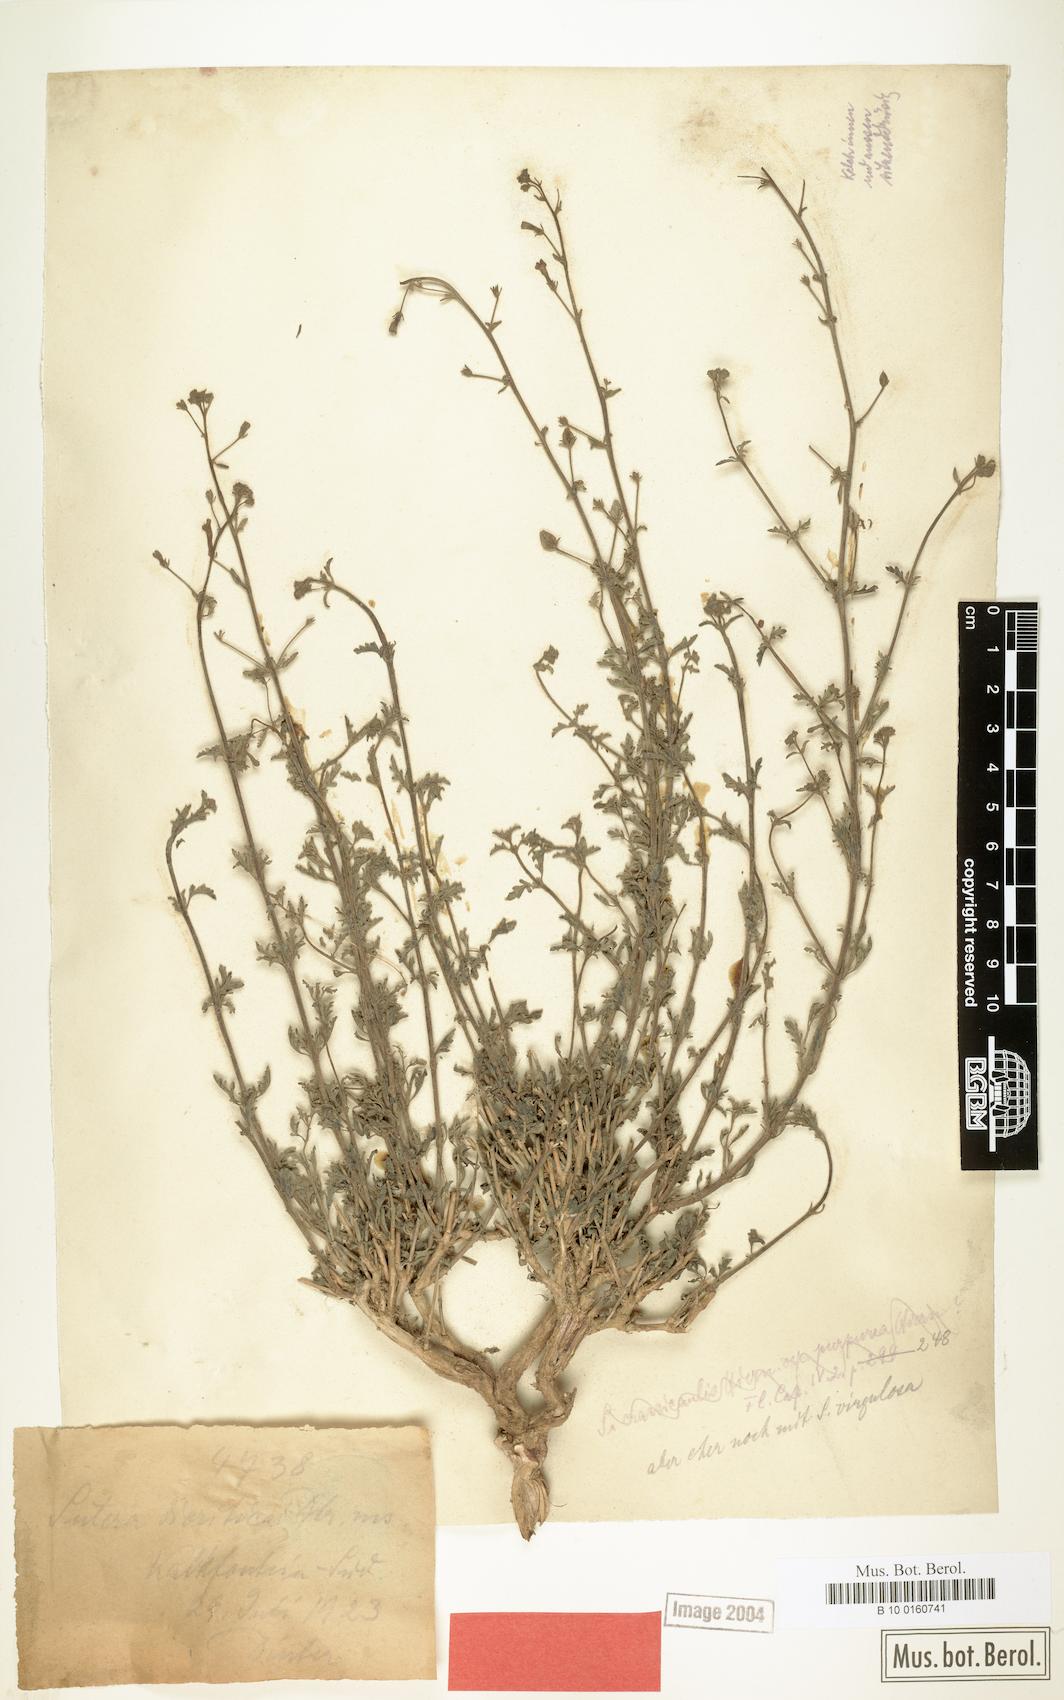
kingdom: Plantae
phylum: Tracheophyta
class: Magnoliopsida
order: Lamiales
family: Scrophulariaceae
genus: Jamesbrittenia
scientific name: Jamesbrittenia canescens
